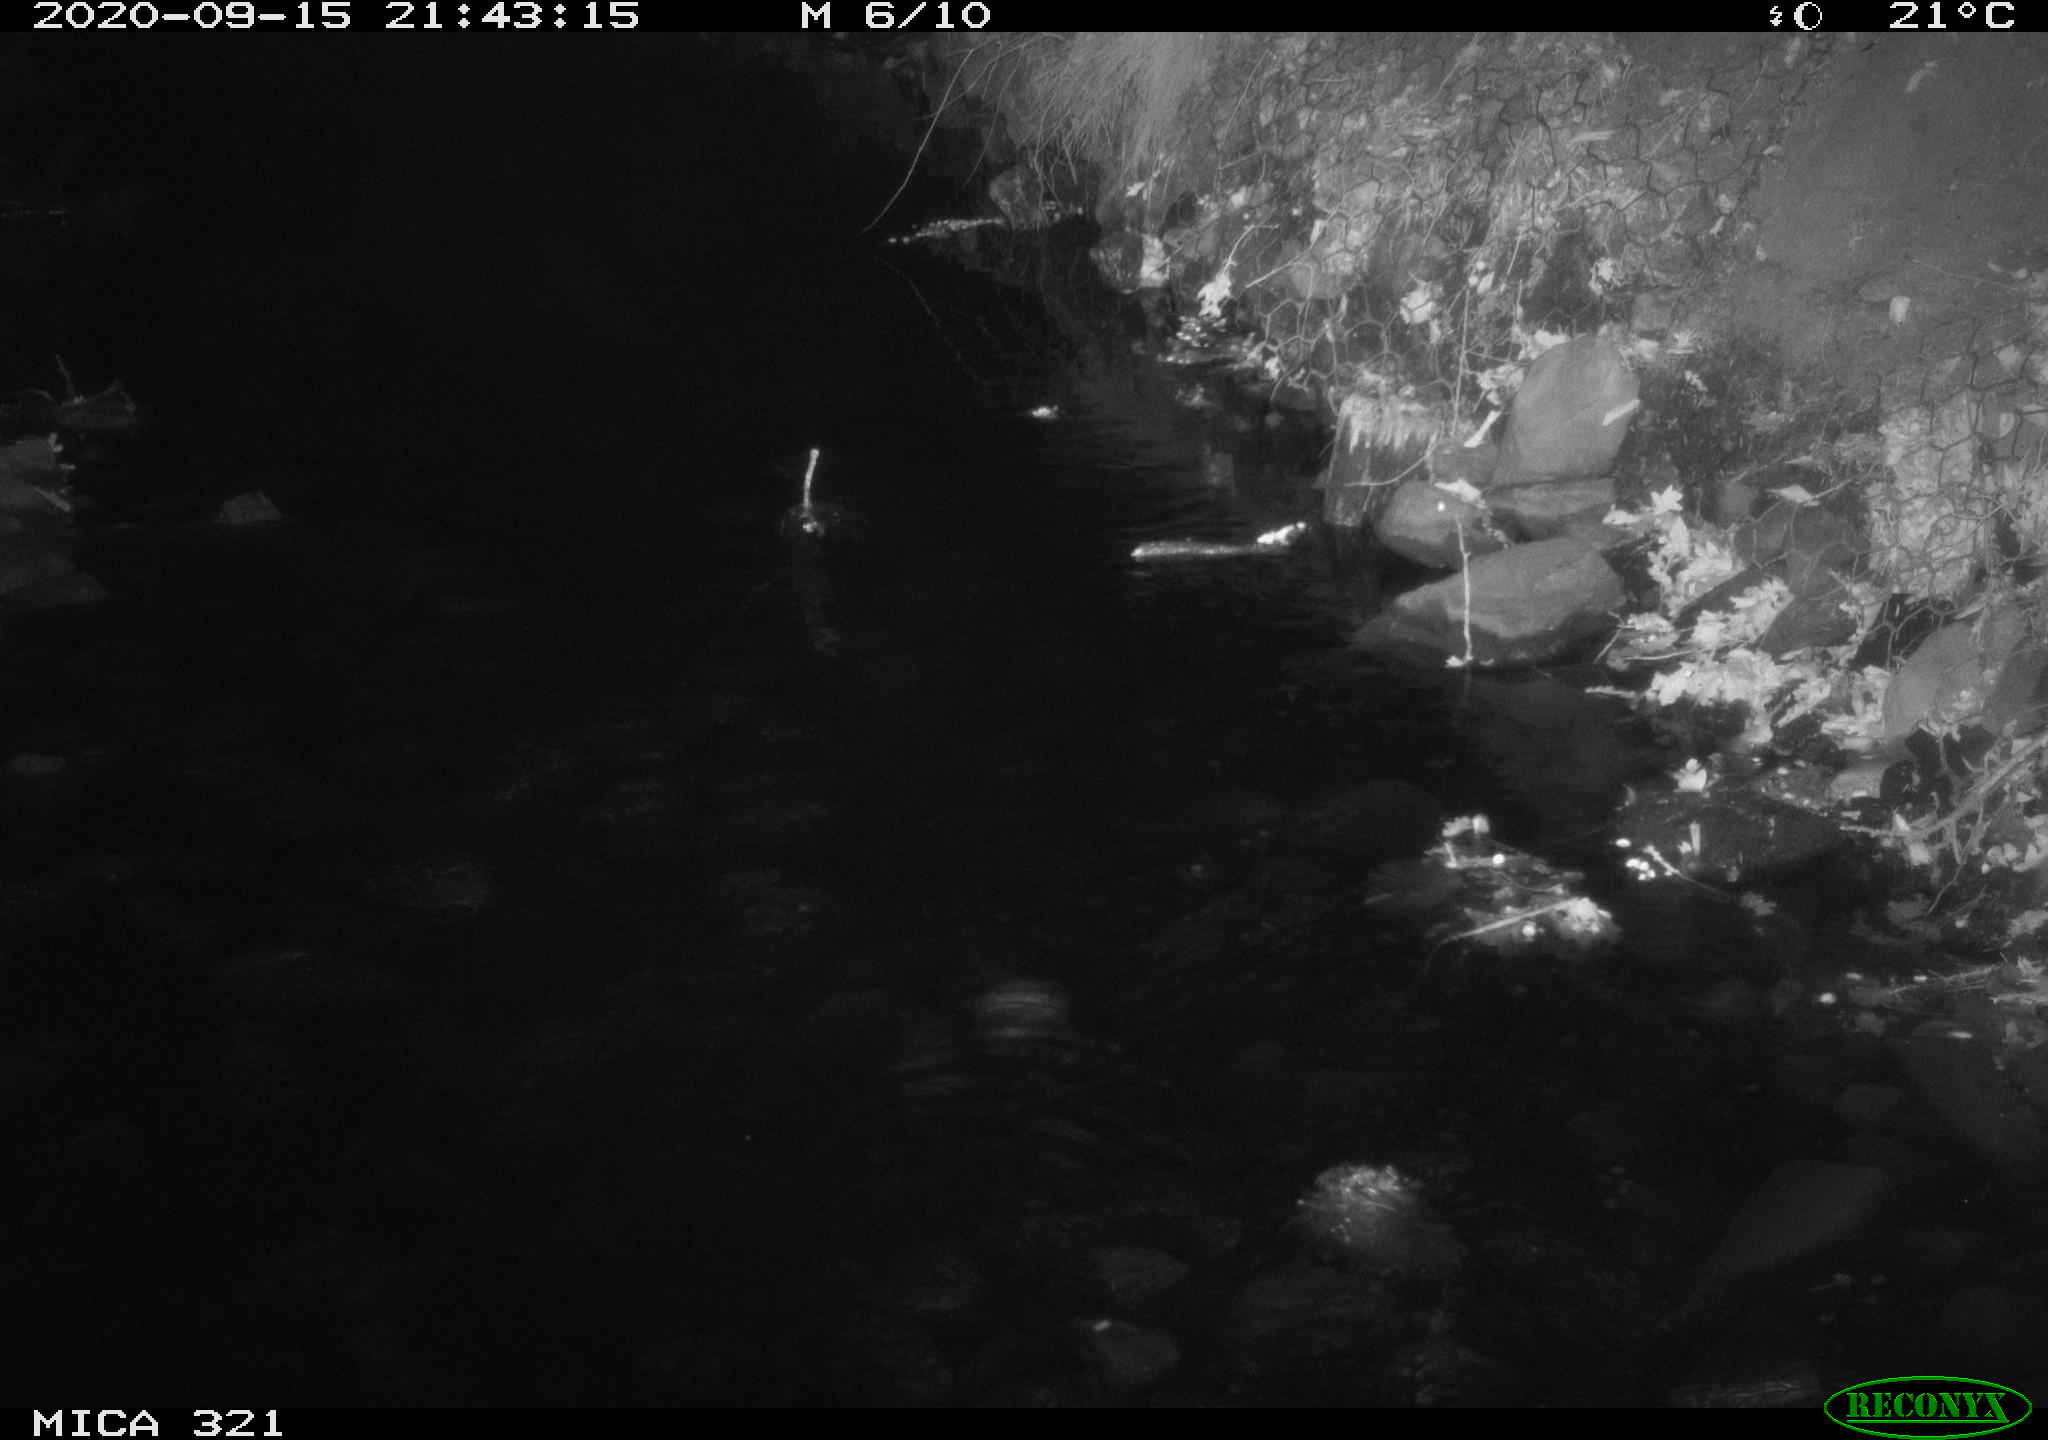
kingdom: Animalia
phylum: Chordata
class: Aves
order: Anseriformes
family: Anatidae
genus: Anas
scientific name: Anas platyrhynchos
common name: Mallard
